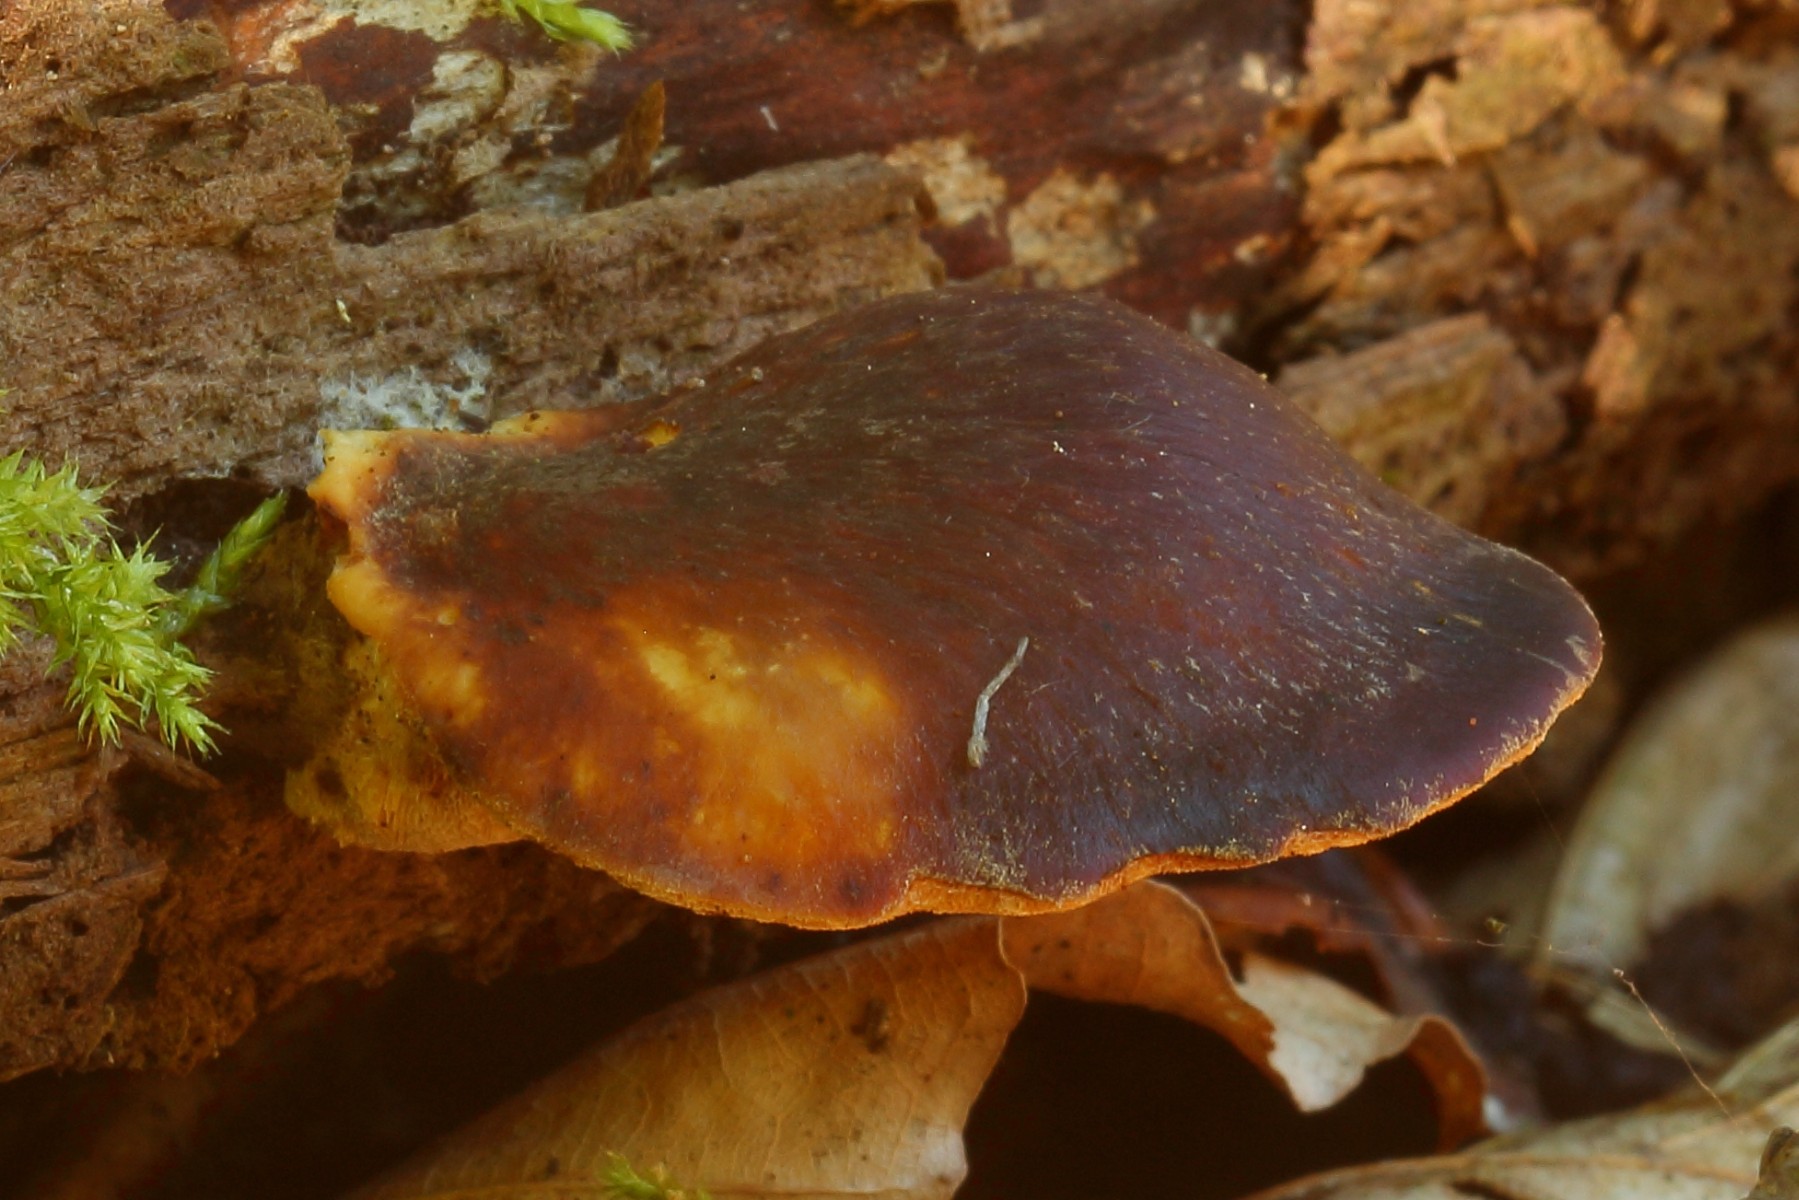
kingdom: Fungi
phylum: Basidiomycota
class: Agaricomycetes
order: Agaricales
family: Fistulinaceae
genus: Fistulina
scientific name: Fistulina hepatica
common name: oksetunge
